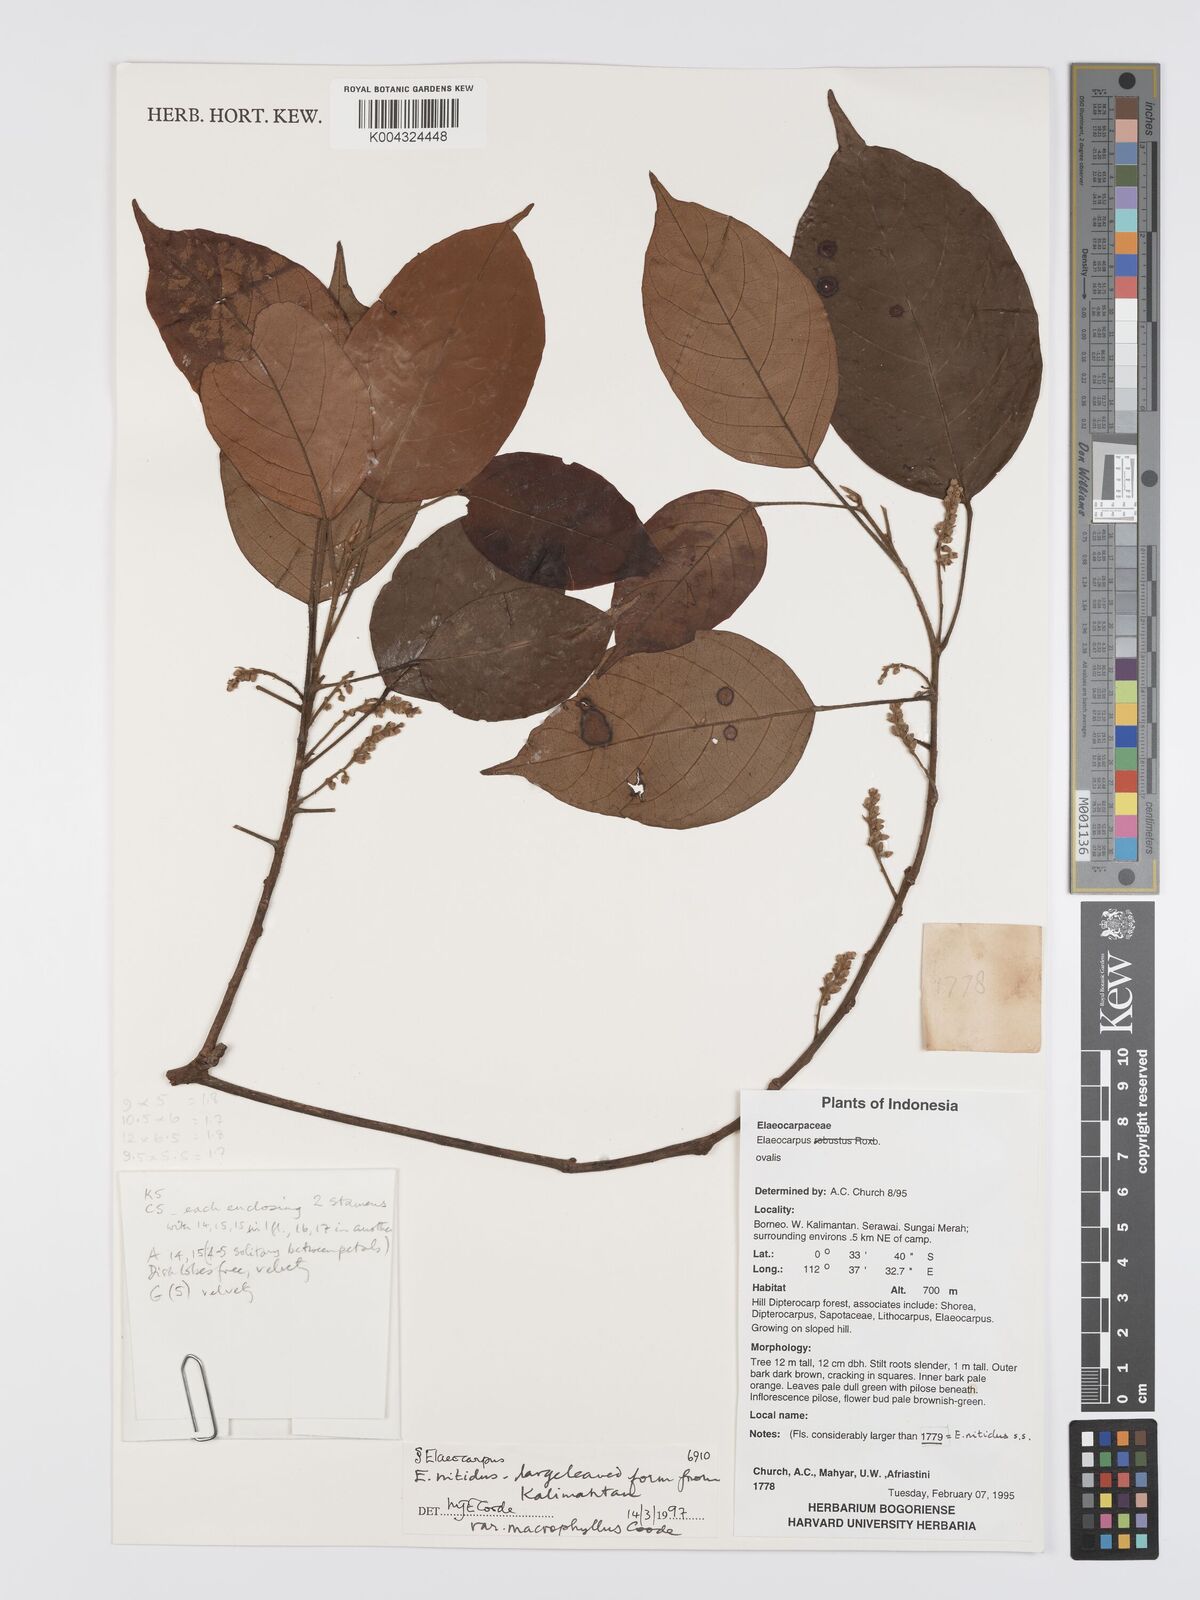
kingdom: Plantae
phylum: Tracheophyta
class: Magnoliopsida
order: Oxalidales
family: Elaeocarpaceae
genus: Elaeocarpus
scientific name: Elaeocarpus nitidus
